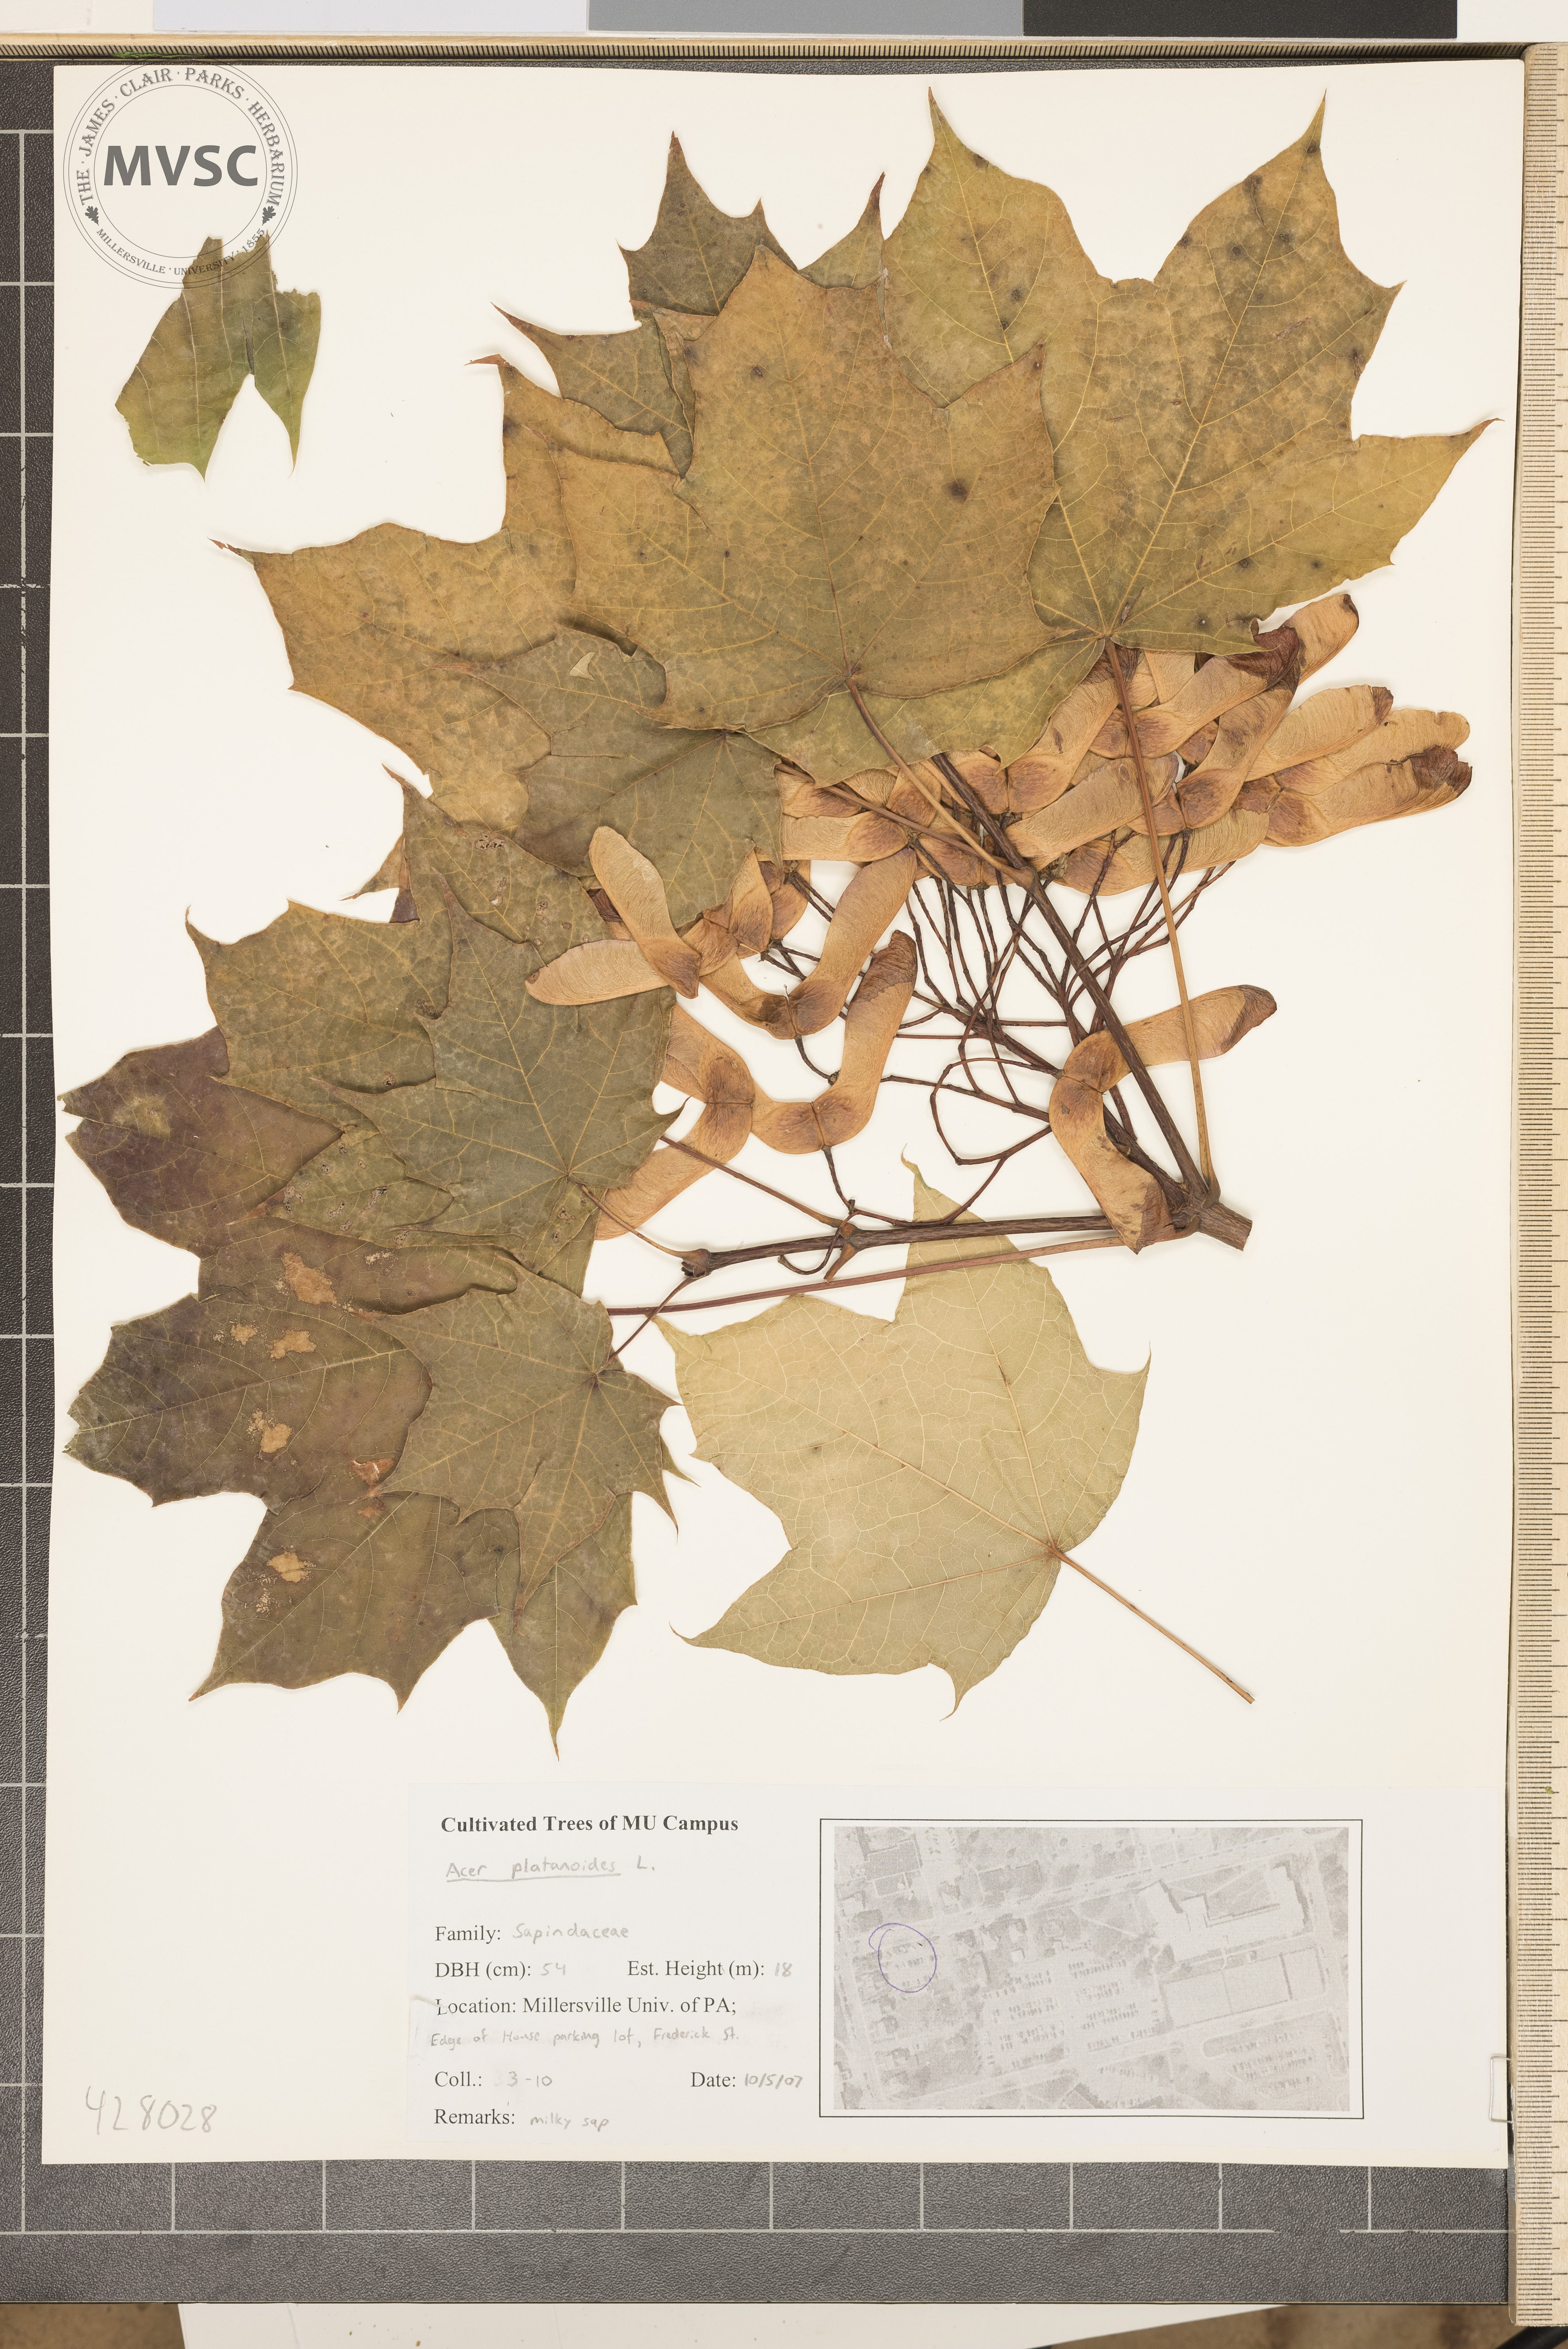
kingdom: Plantae
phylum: Tracheophyta
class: Magnoliopsida
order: Sapindales
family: Sapindaceae
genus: Acer
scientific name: Acer platanoides
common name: Norway maple
